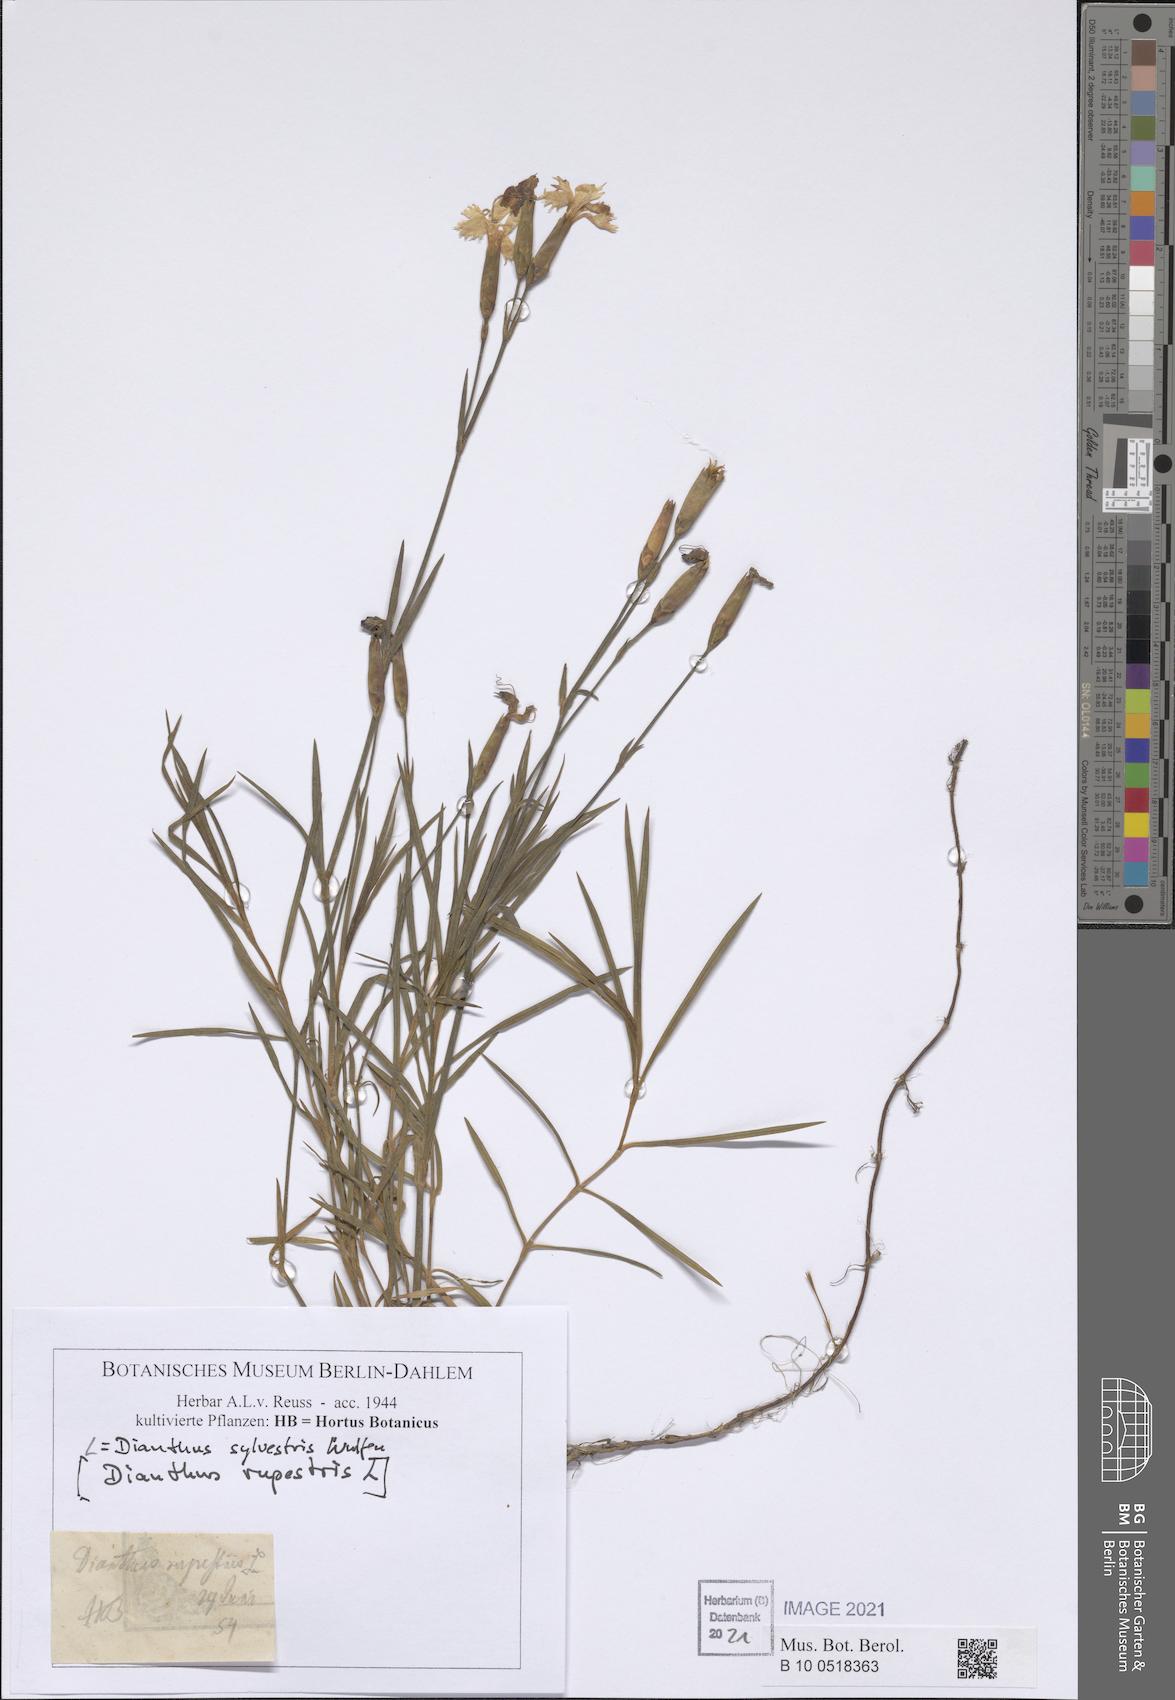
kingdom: Plantae
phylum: Tracheophyta
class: Magnoliopsida
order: Caryophyllales
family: Caryophyllaceae
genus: Dianthus
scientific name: Dianthus sylvestris
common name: Wood pink
